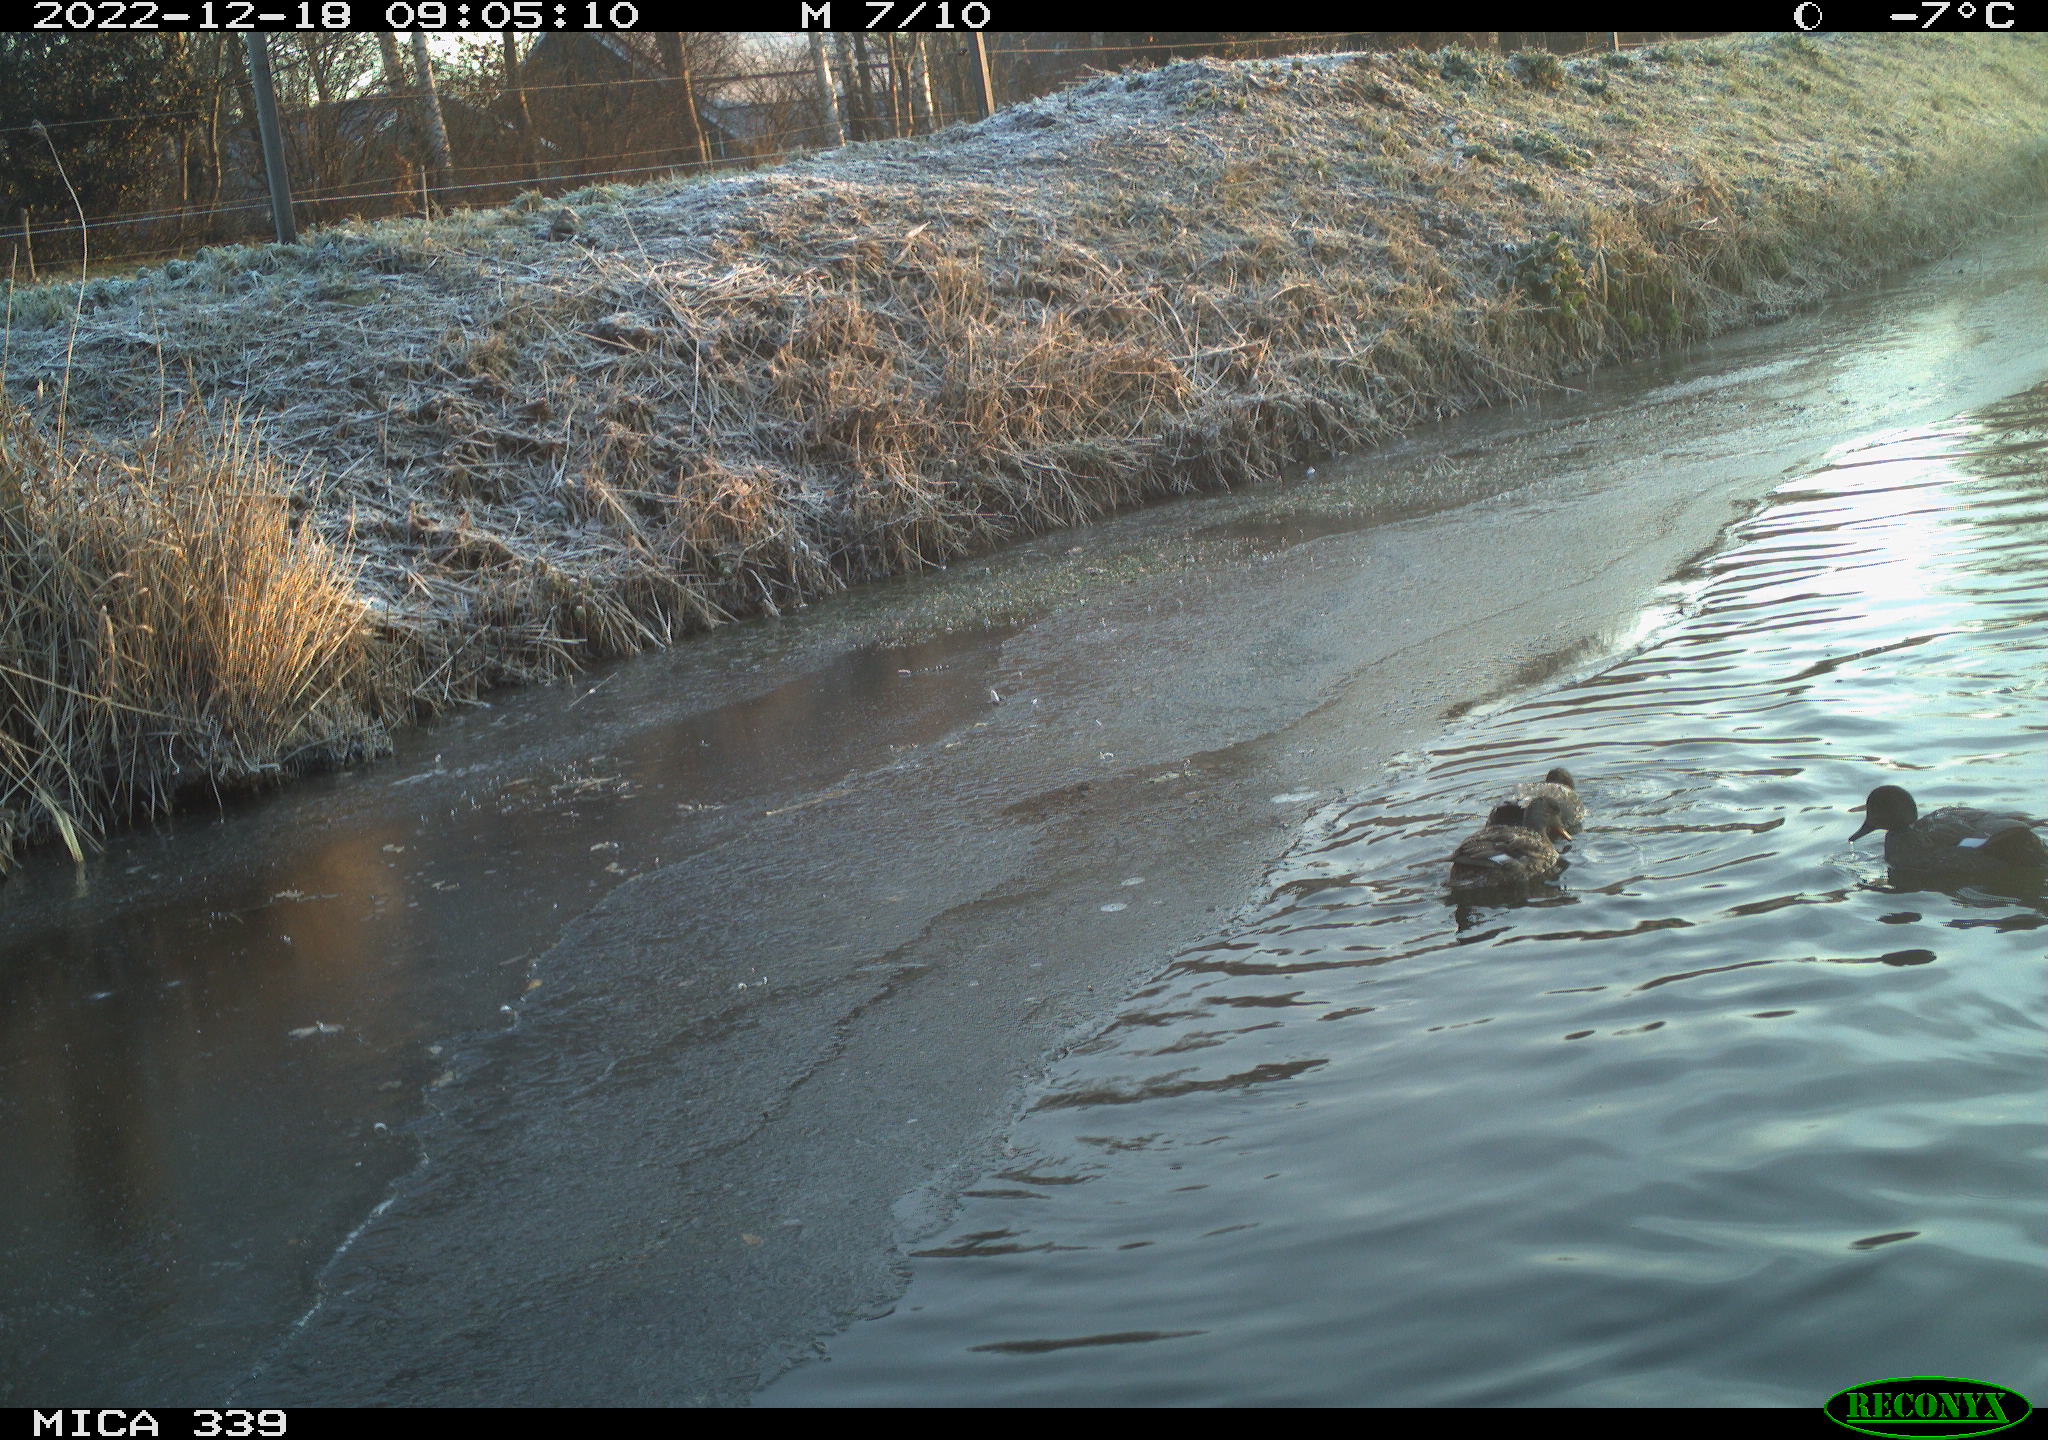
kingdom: Animalia
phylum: Chordata
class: Aves
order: Anseriformes
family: Anatidae
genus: Anas
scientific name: Anas
